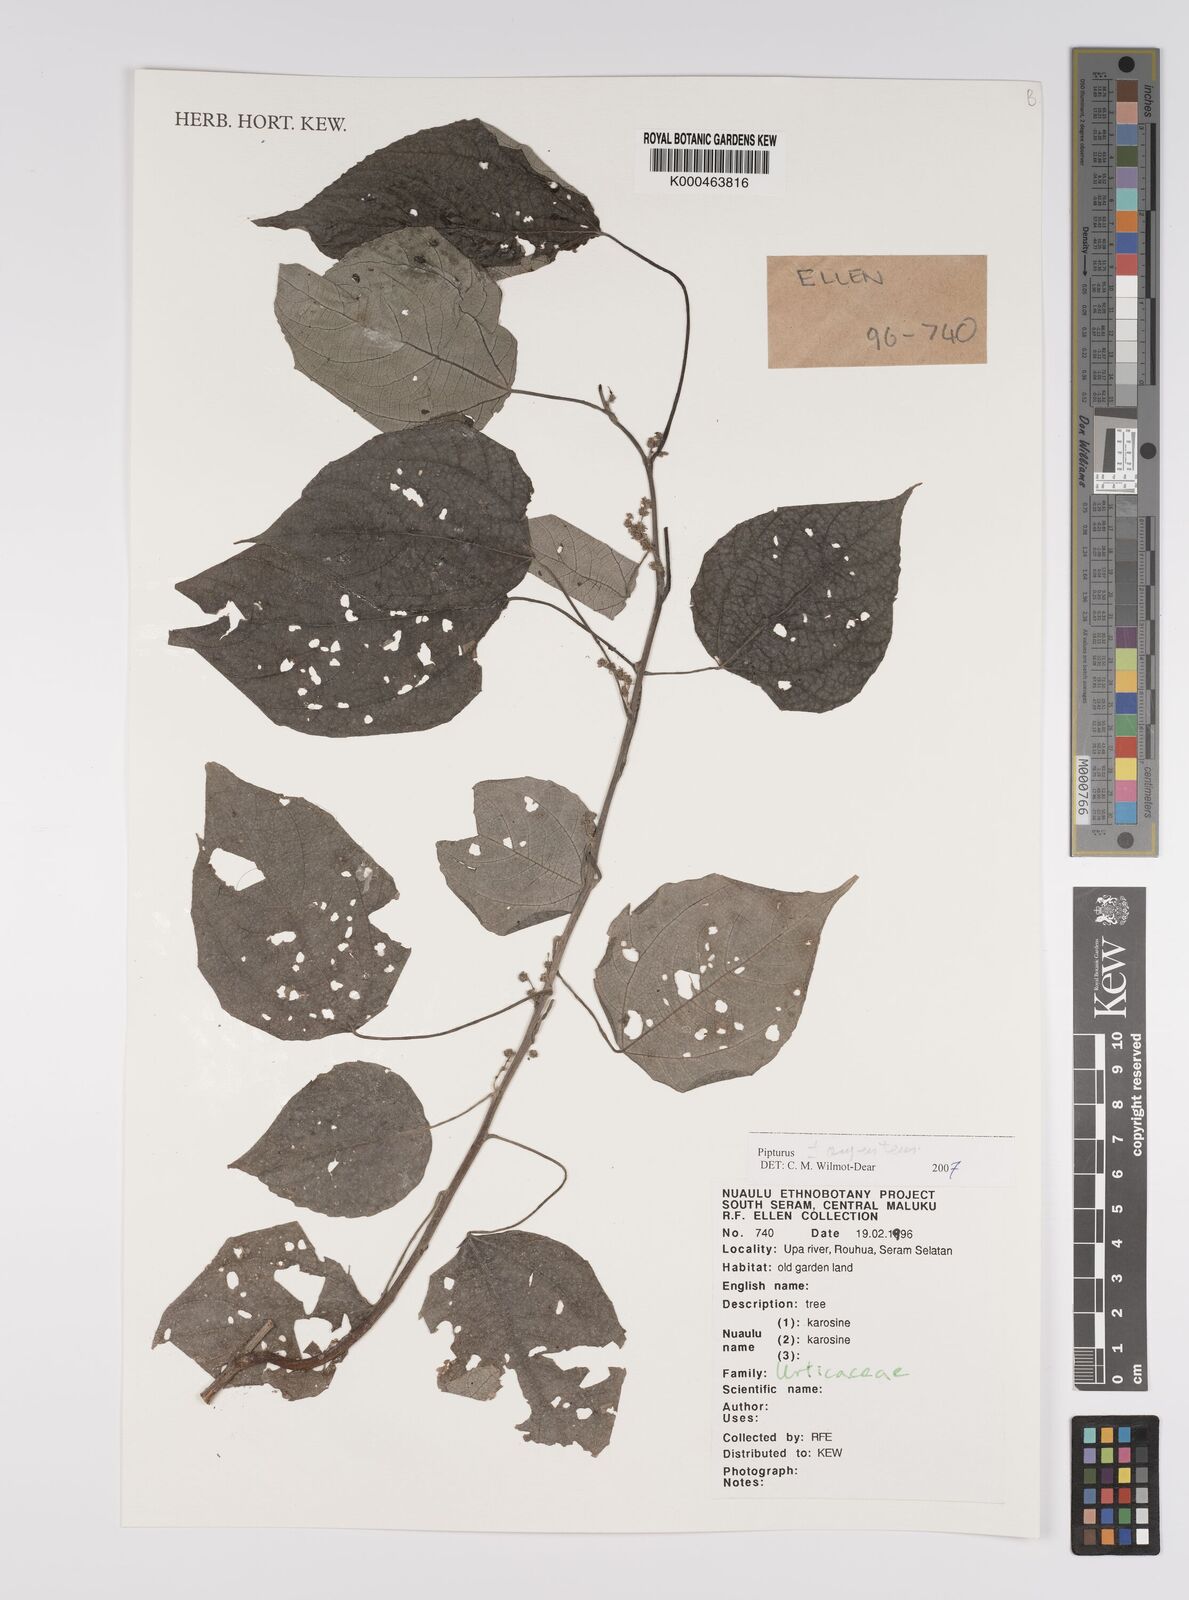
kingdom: Plantae
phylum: Tracheophyta
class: Magnoliopsida
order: Rosales
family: Urticaceae
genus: Pipturus
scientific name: Pipturus
